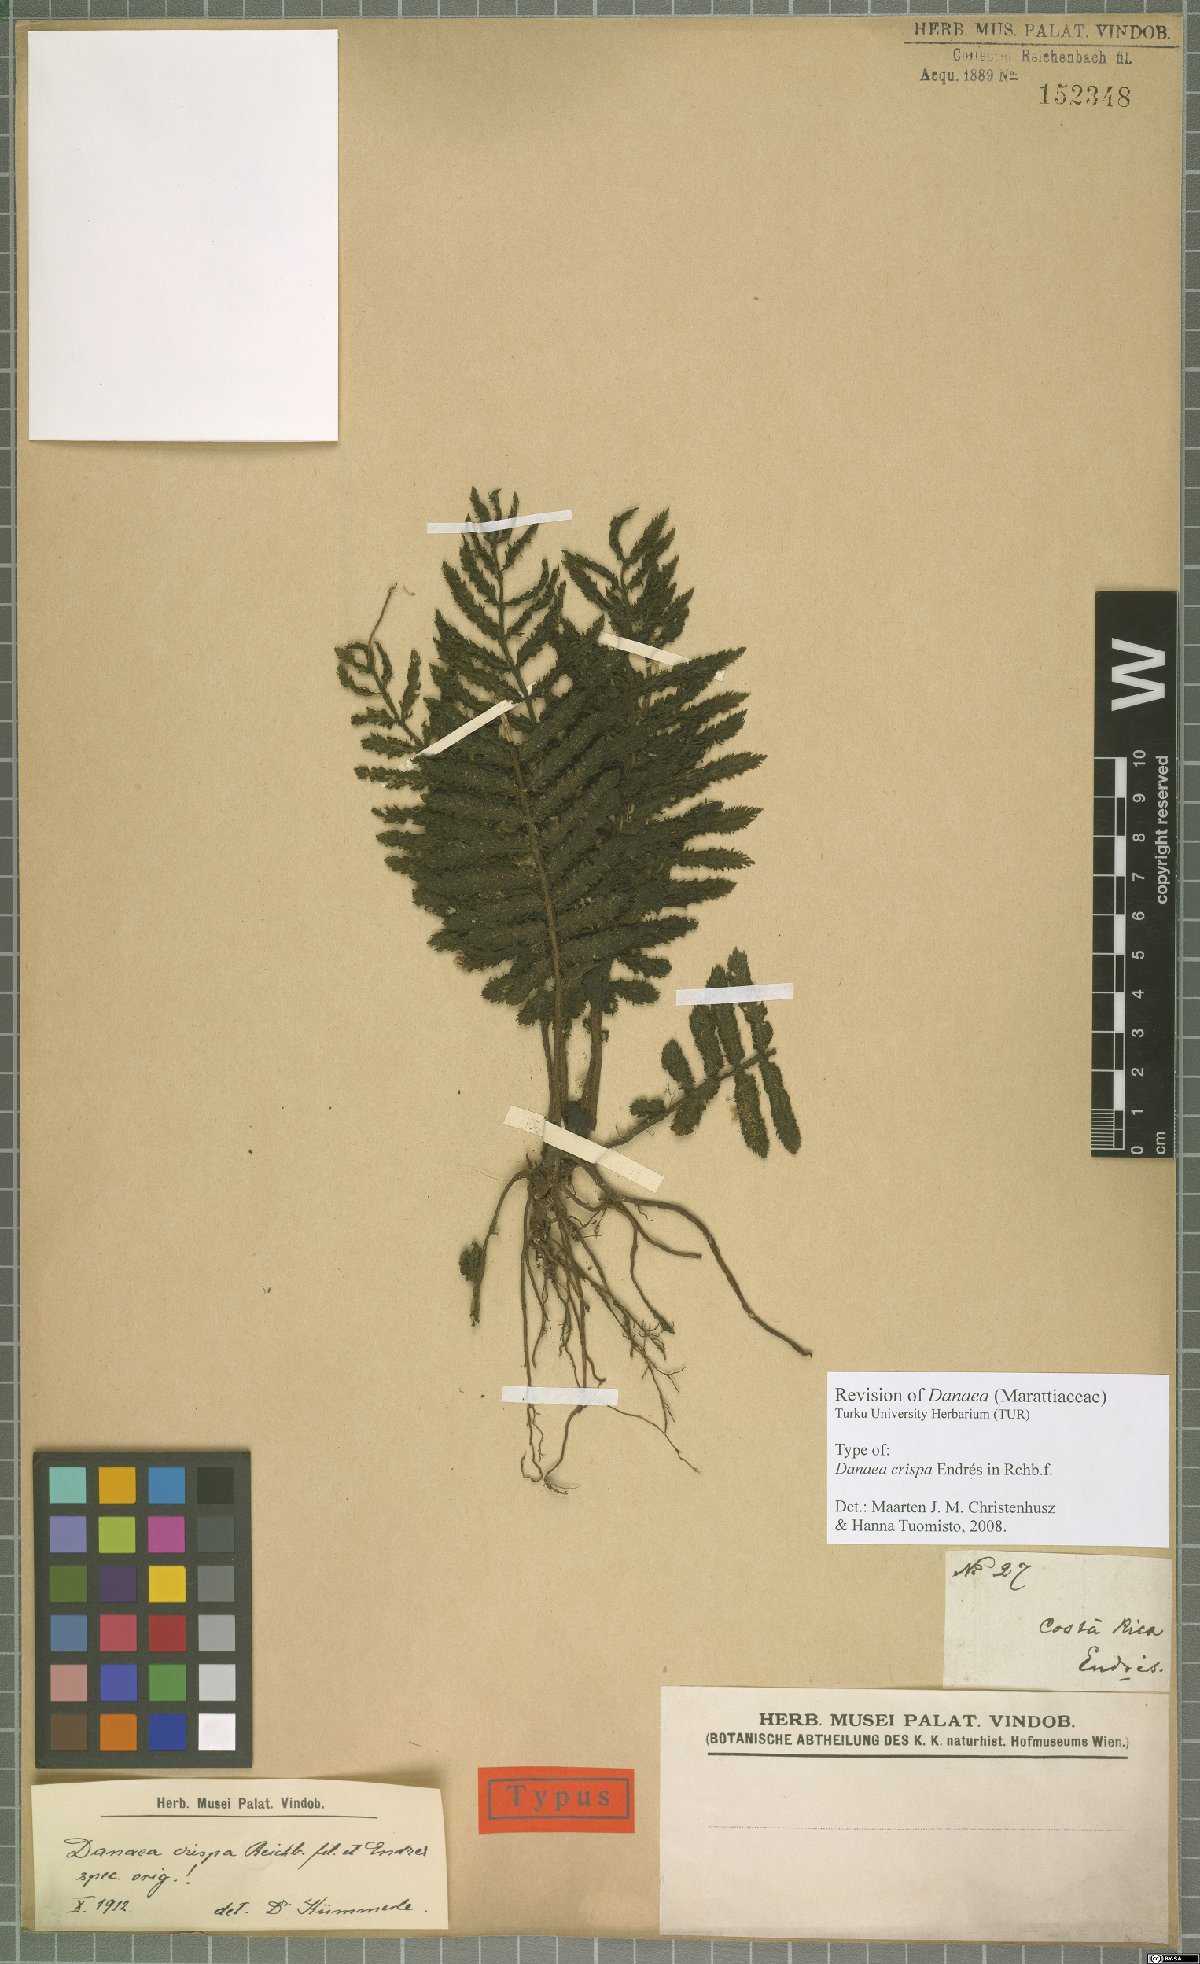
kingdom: Plantae
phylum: Tracheophyta
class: Polypodiopsida
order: Marattiales
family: Marattiaceae
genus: Danaea
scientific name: Danaea crispa
